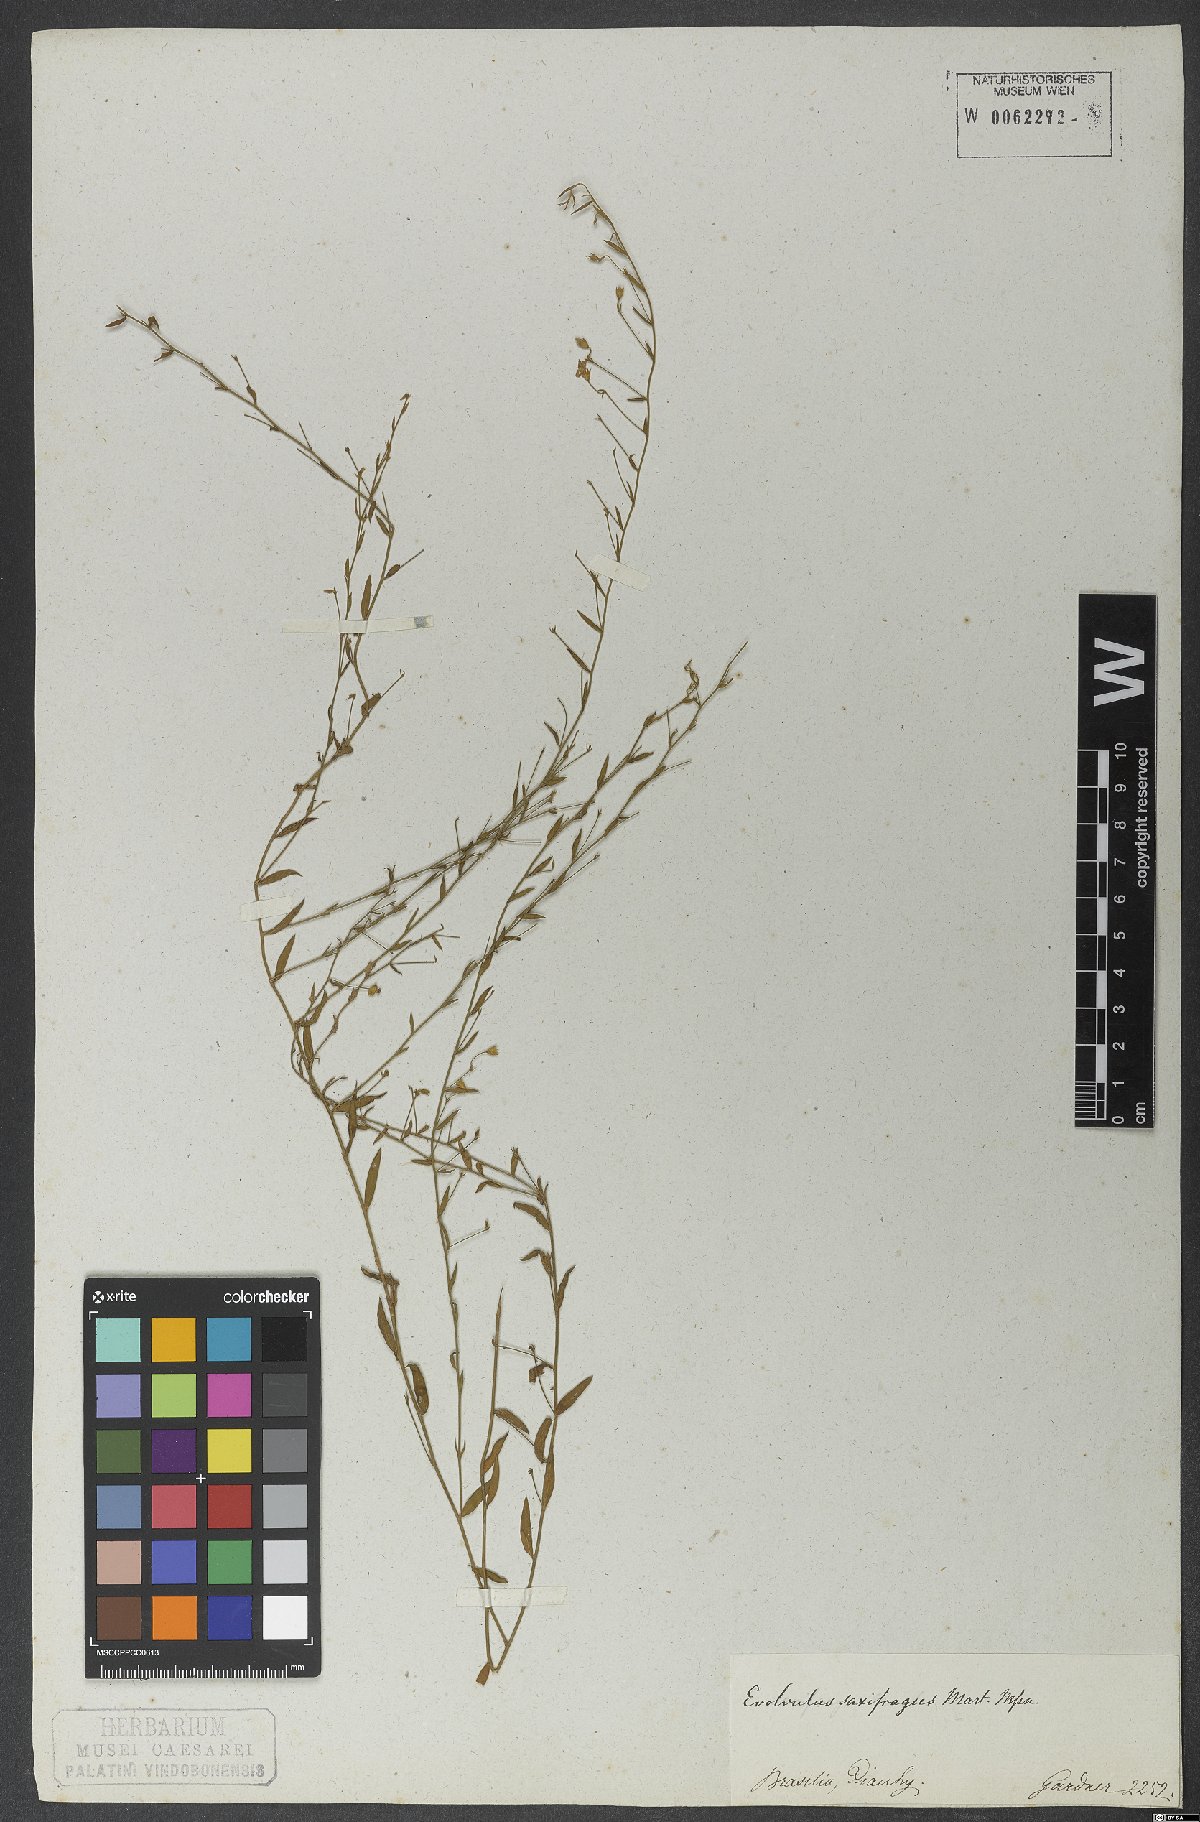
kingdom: Plantae
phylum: Tracheophyta
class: Magnoliopsida
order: Solanales
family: Convolvulaceae
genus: Evolvulus
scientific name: Evolvulus saxifragus
